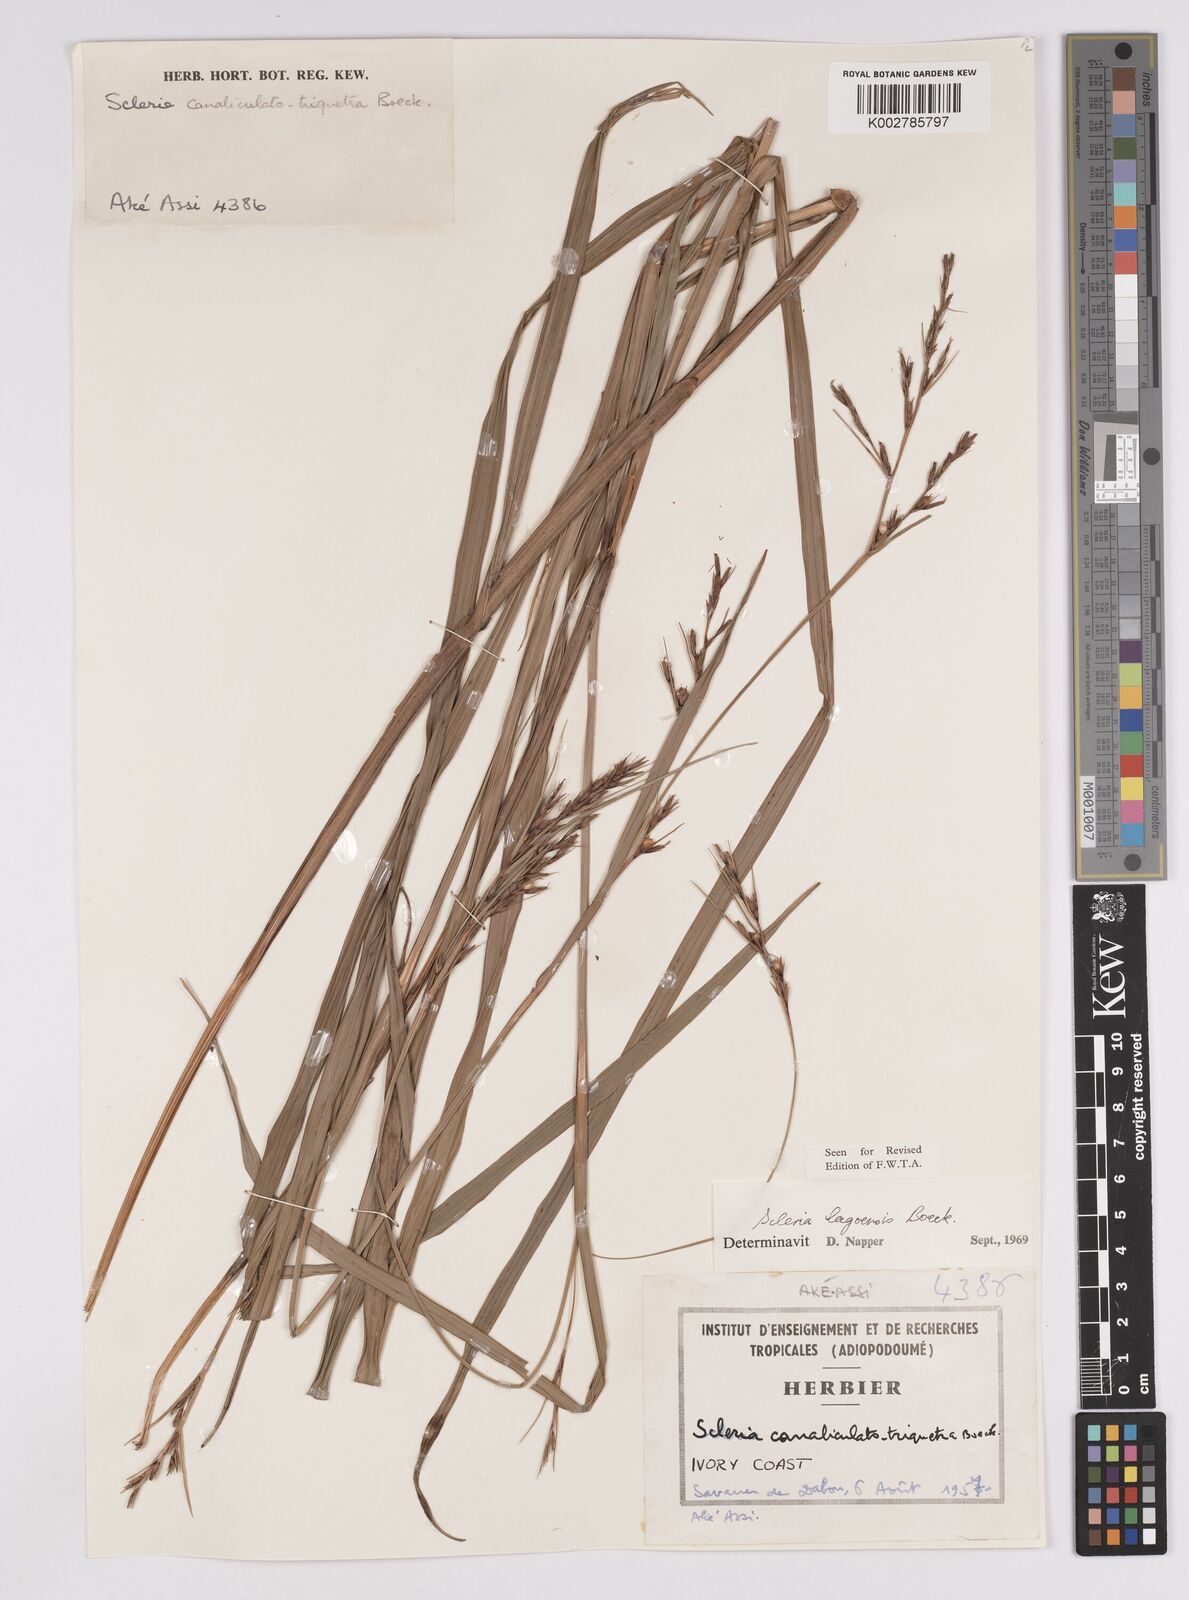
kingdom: Plantae
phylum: Tracheophyta
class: Liliopsida
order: Poales
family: Cyperaceae
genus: Scleria
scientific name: Scleria lagoensis
